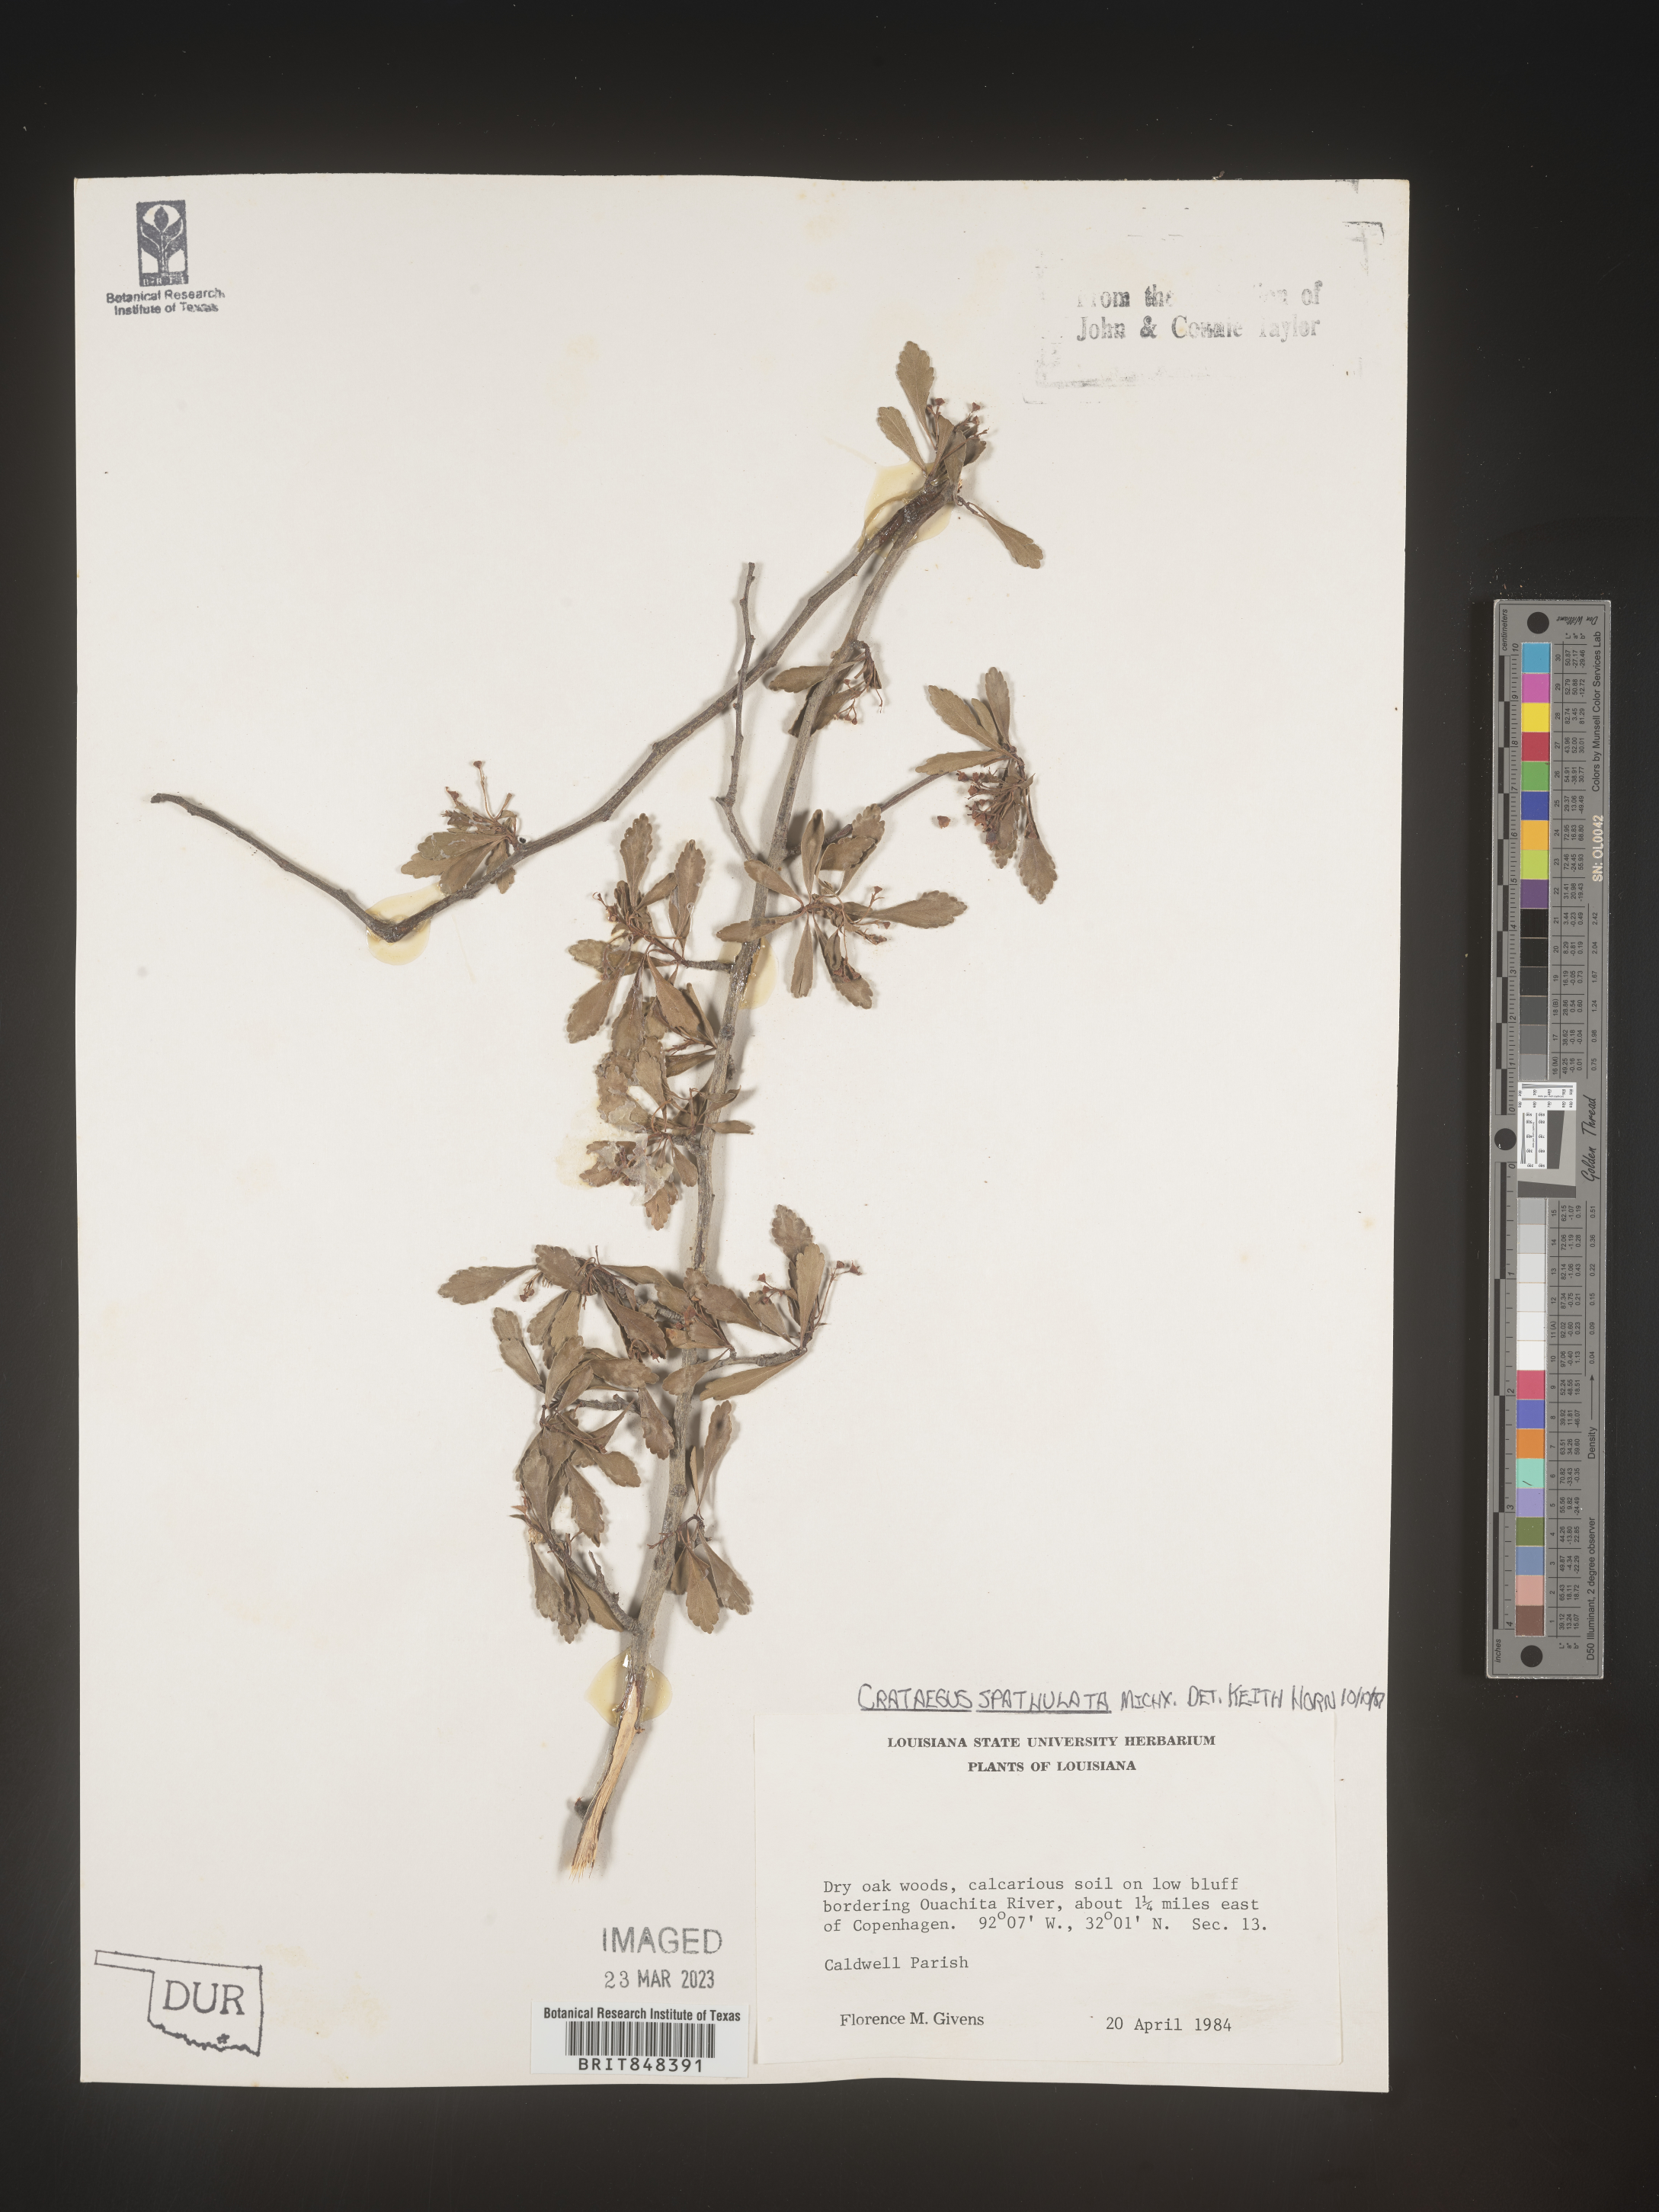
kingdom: Plantae
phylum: Tracheophyta
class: Magnoliopsida
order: Rosales
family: Rosaceae
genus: Crataegus
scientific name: Crataegus spathulata
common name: Littlehip hawthorn
